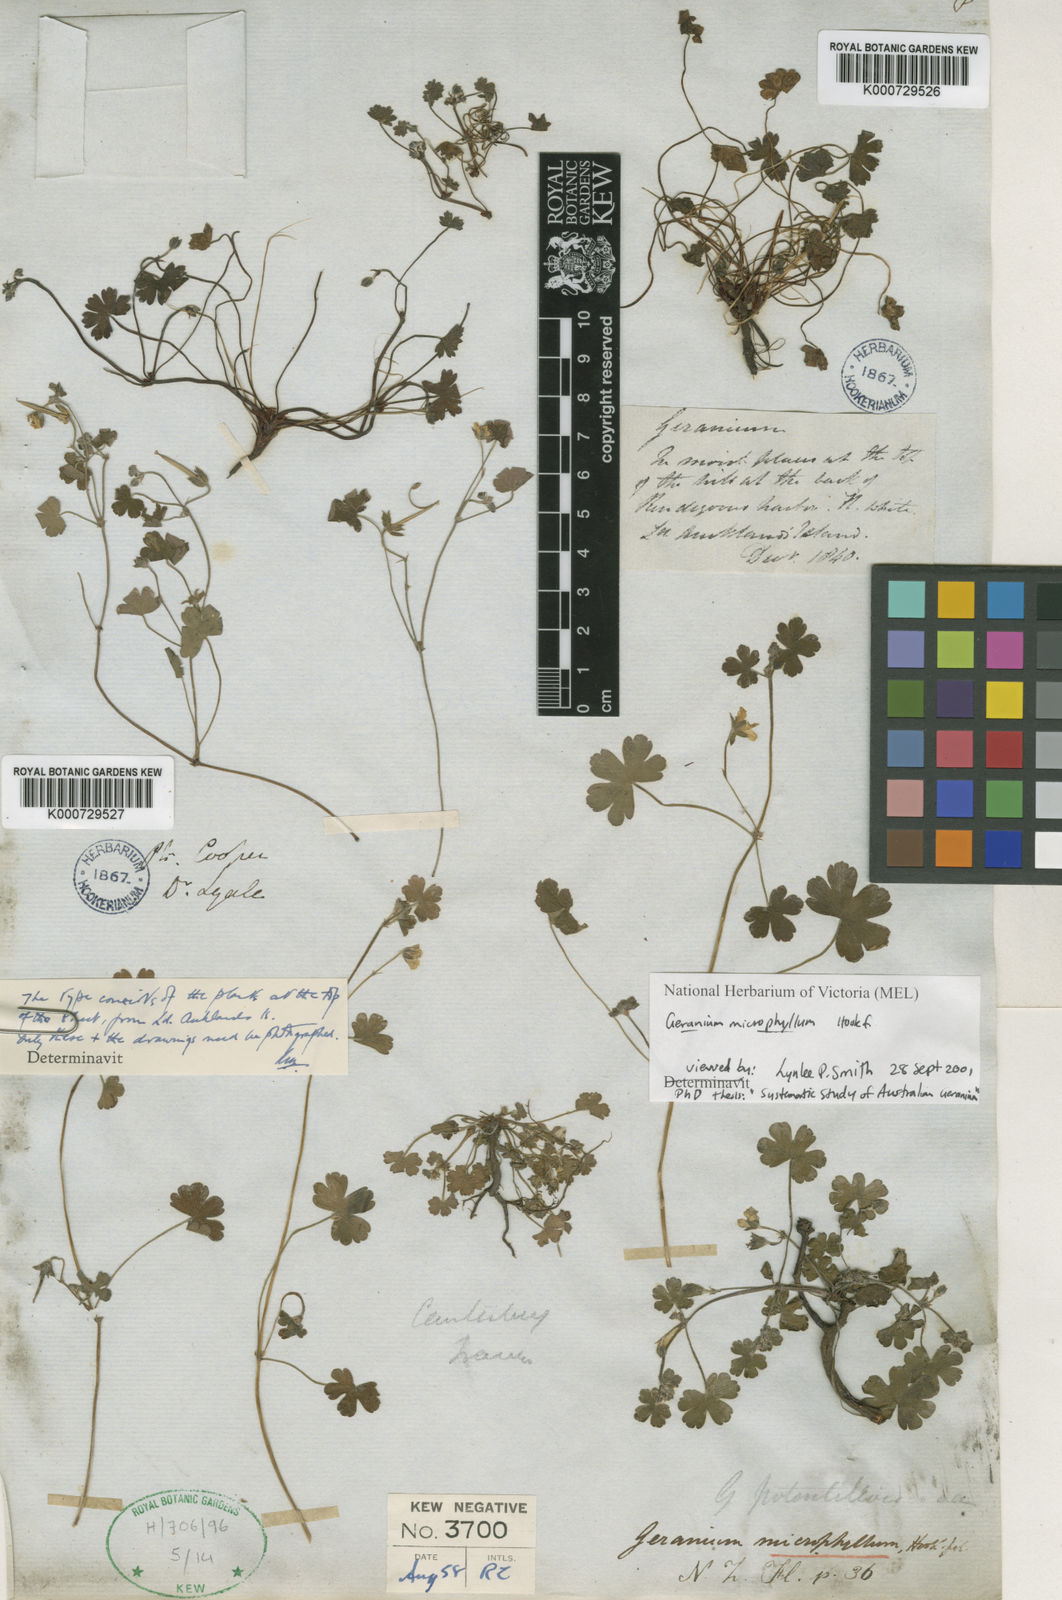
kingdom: Plantae
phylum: Tracheophyta
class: Magnoliopsida
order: Geraniales
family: Geraniaceae
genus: Geranium
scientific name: Geranium
